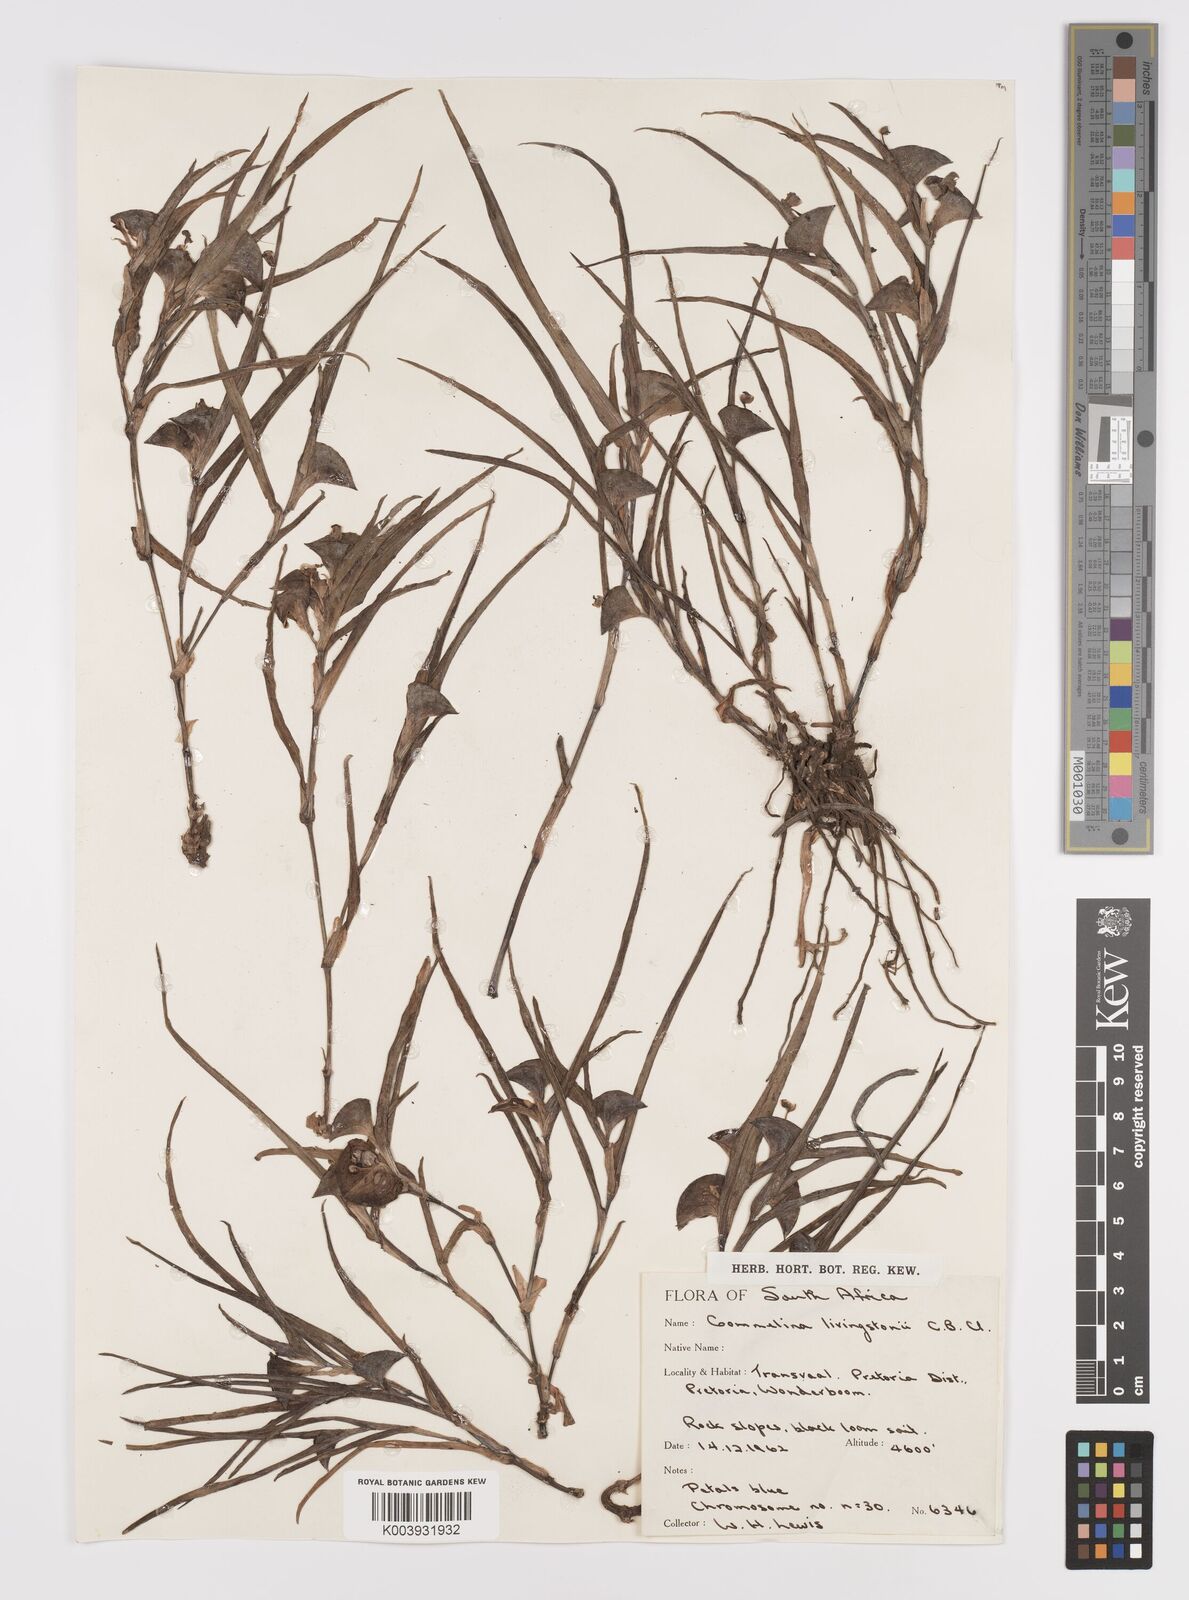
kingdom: Plantae
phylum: Tracheophyta
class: Liliopsida
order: Commelinales
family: Commelinaceae
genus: Commelina
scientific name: Commelina erecta
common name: Blousel blommetjie
